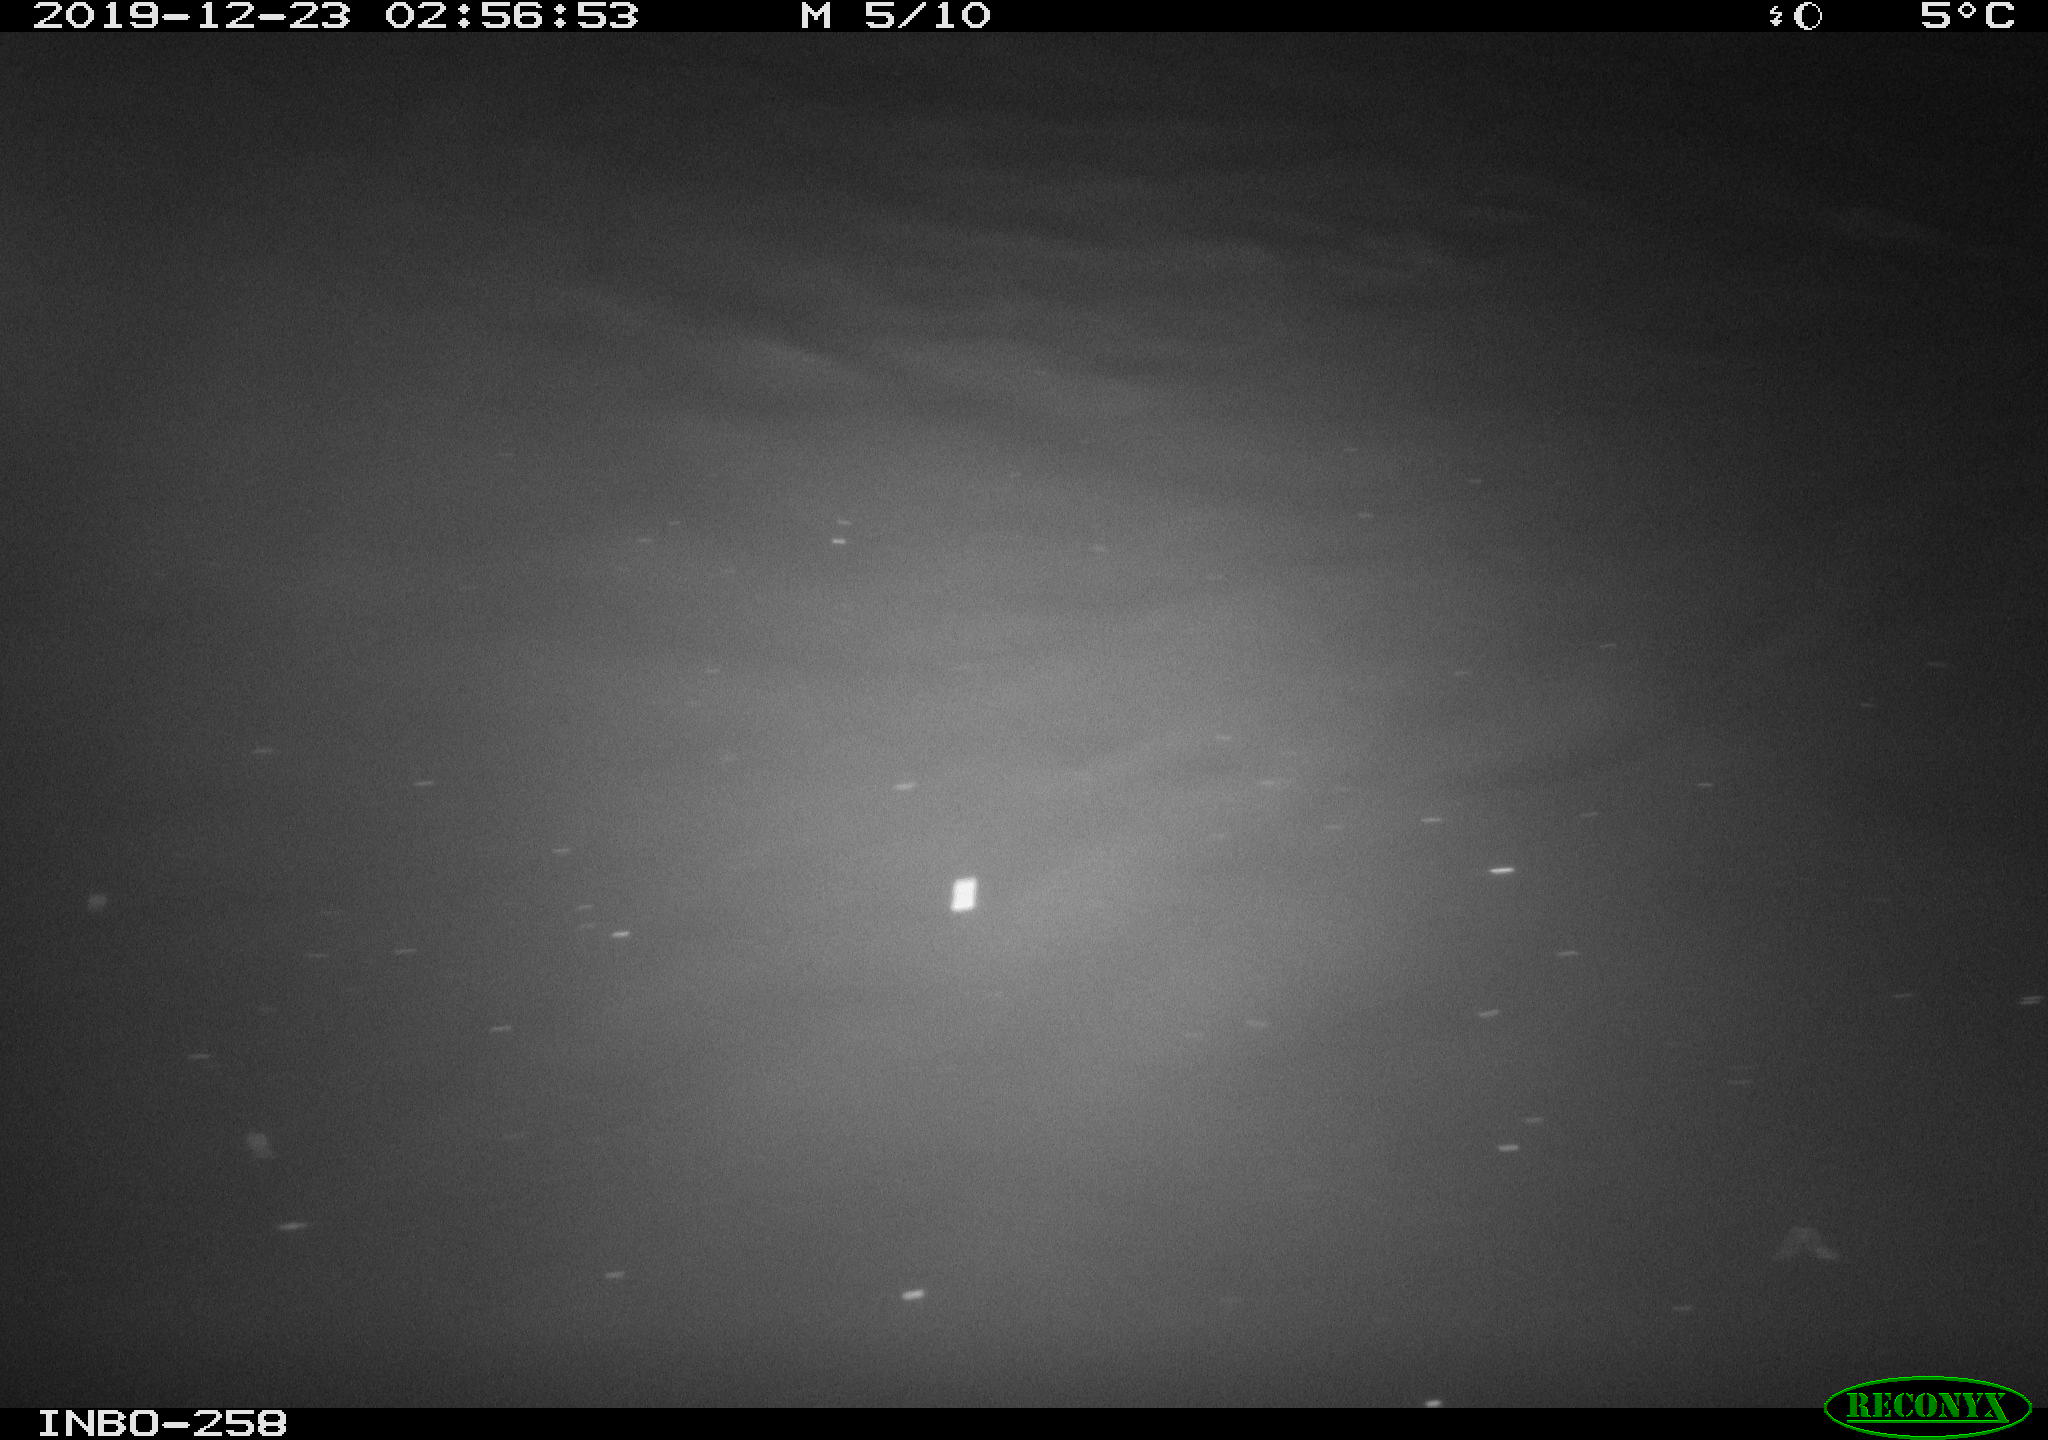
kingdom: Animalia
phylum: Chordata
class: Aves
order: Anseriformes
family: Anatidae
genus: Anas
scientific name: Anas platyrhynchos
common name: Mallard
